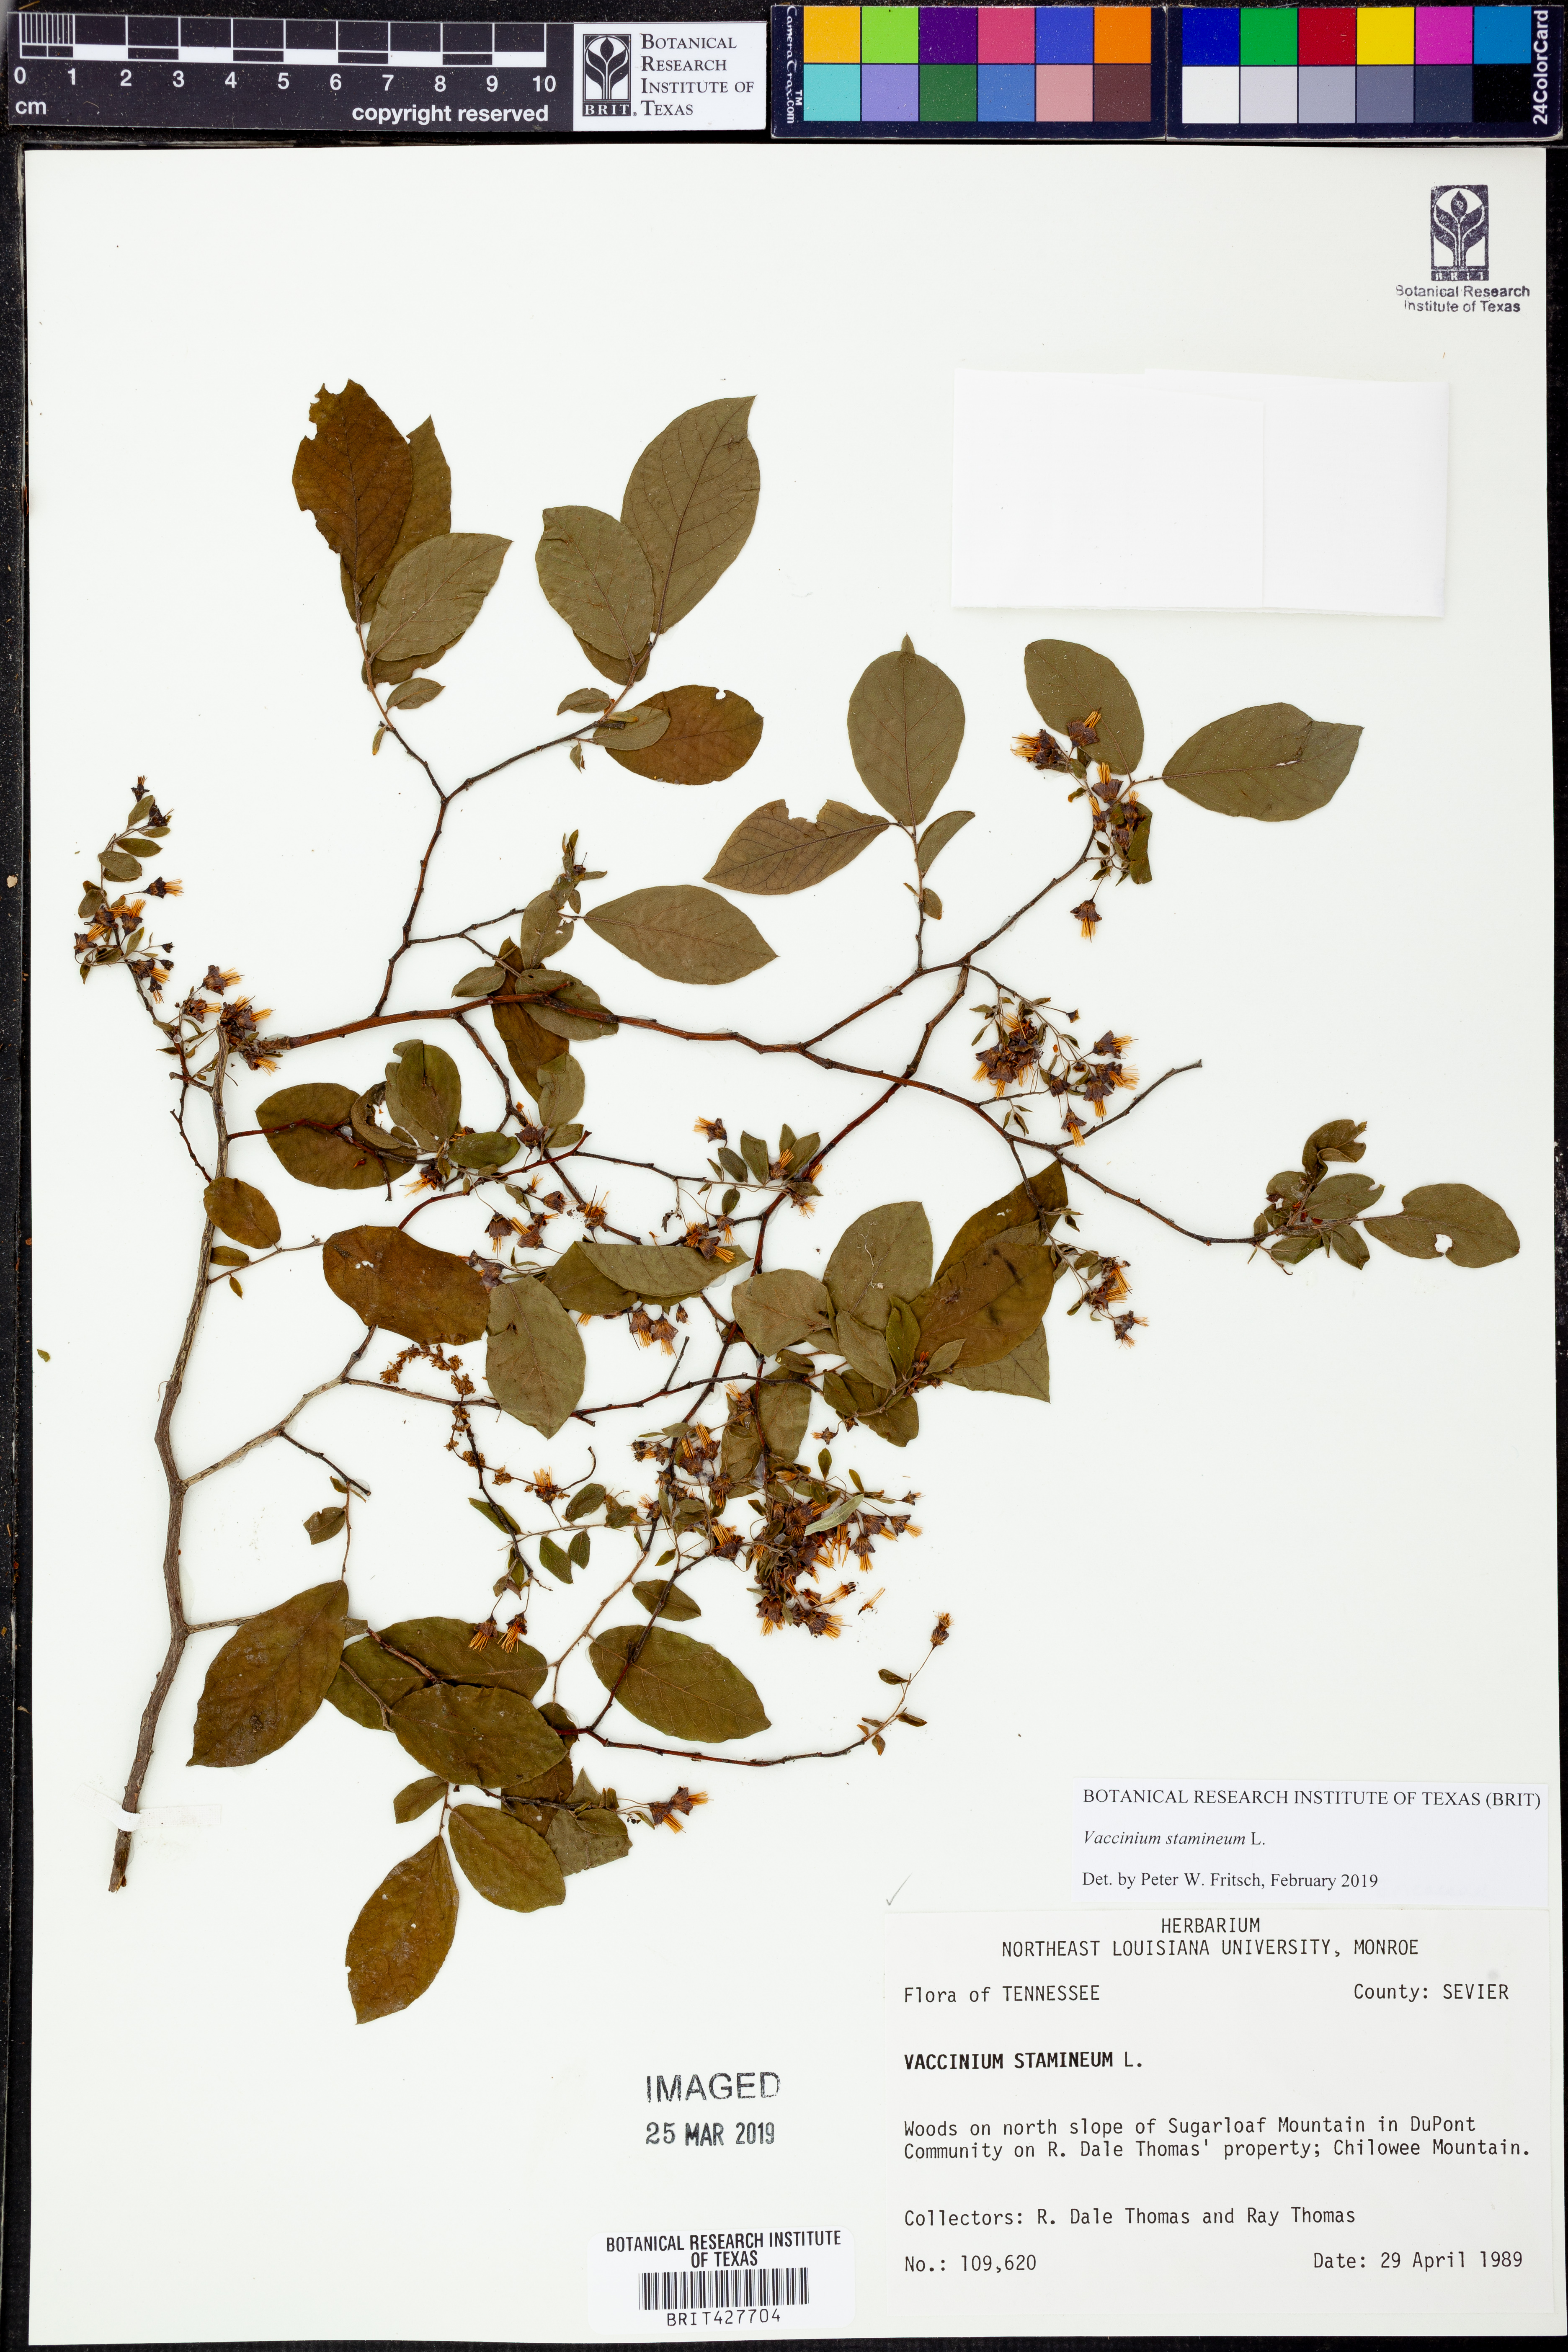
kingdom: Plantae
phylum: Tracheophyta
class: Magnoliopsida
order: Ericales
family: Ericaceae
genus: Vaccinium
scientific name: Vaccinium stamineum
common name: Deerberry
